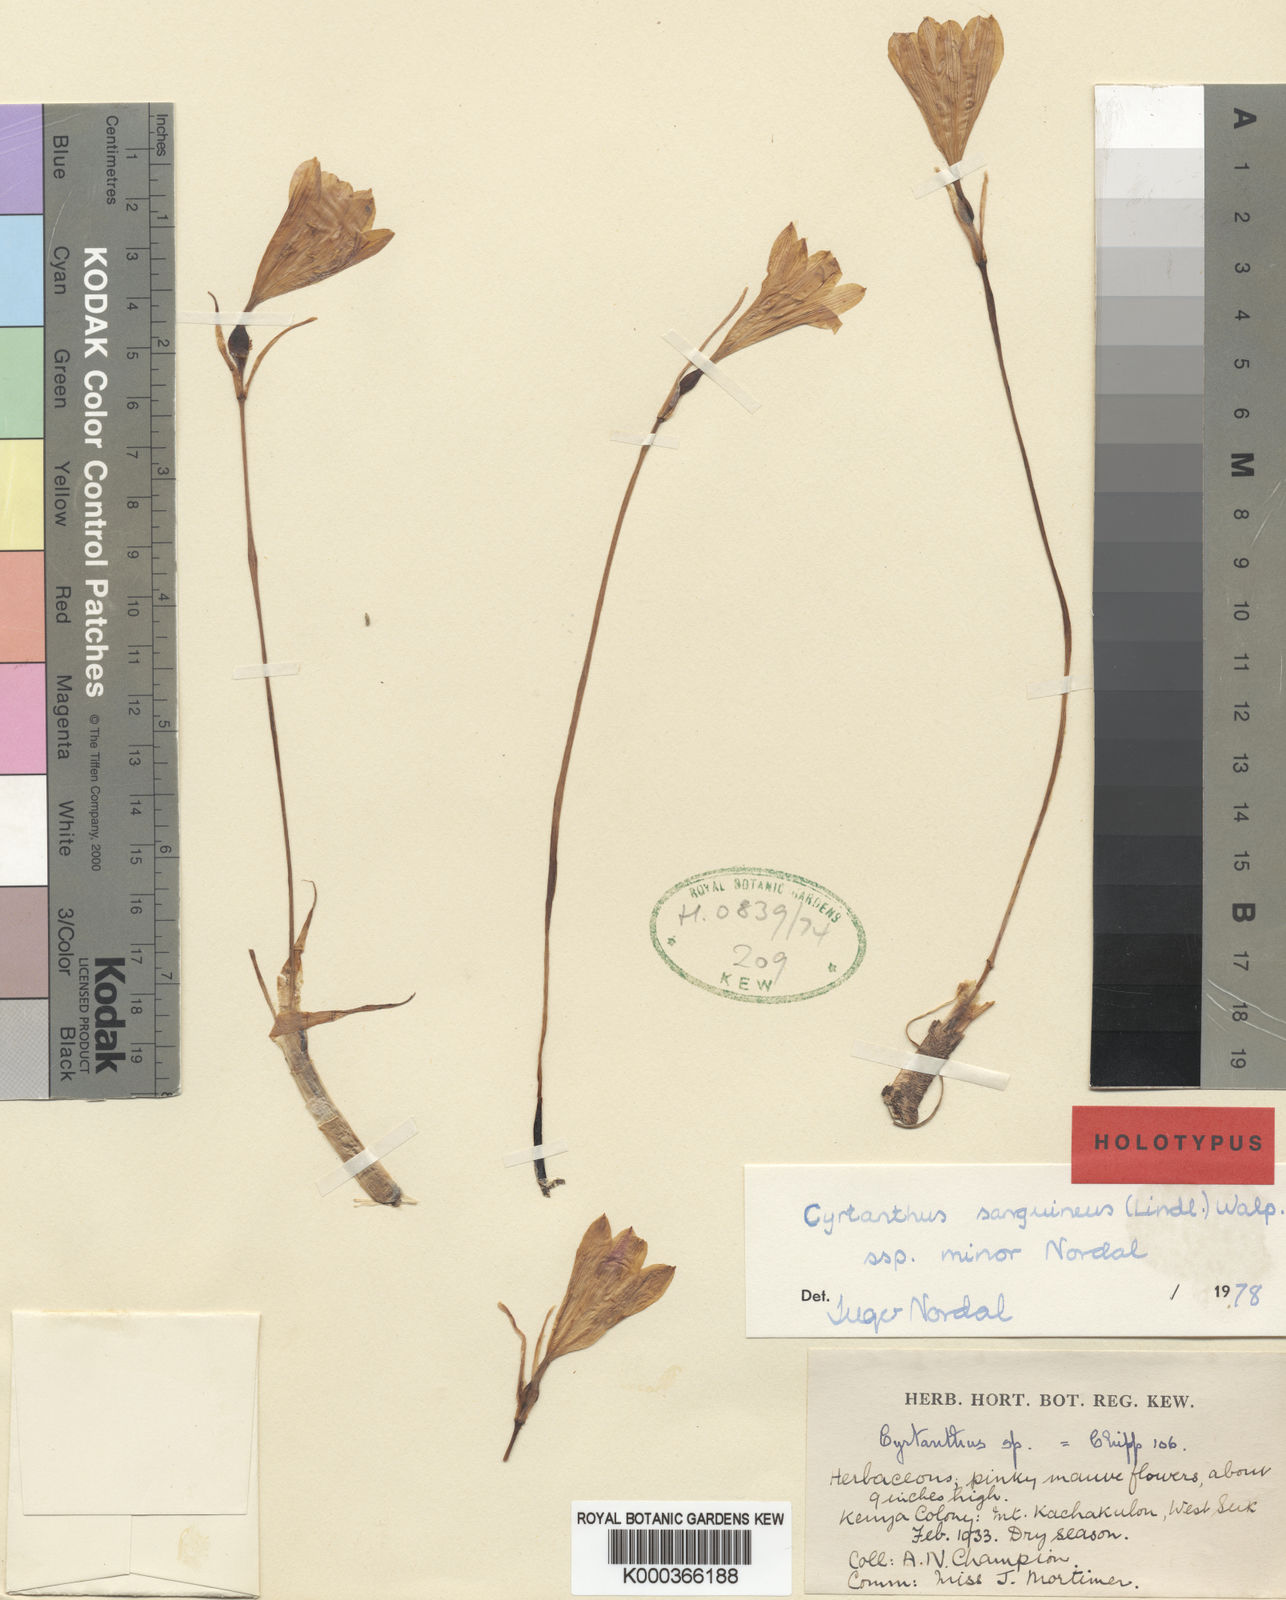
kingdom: Plantae
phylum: Tracheophyta
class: Liliopsida
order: Asparagales
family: Amaryllidaceae
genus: Cyrtanthus
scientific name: Cyrtanthus sanguineus
